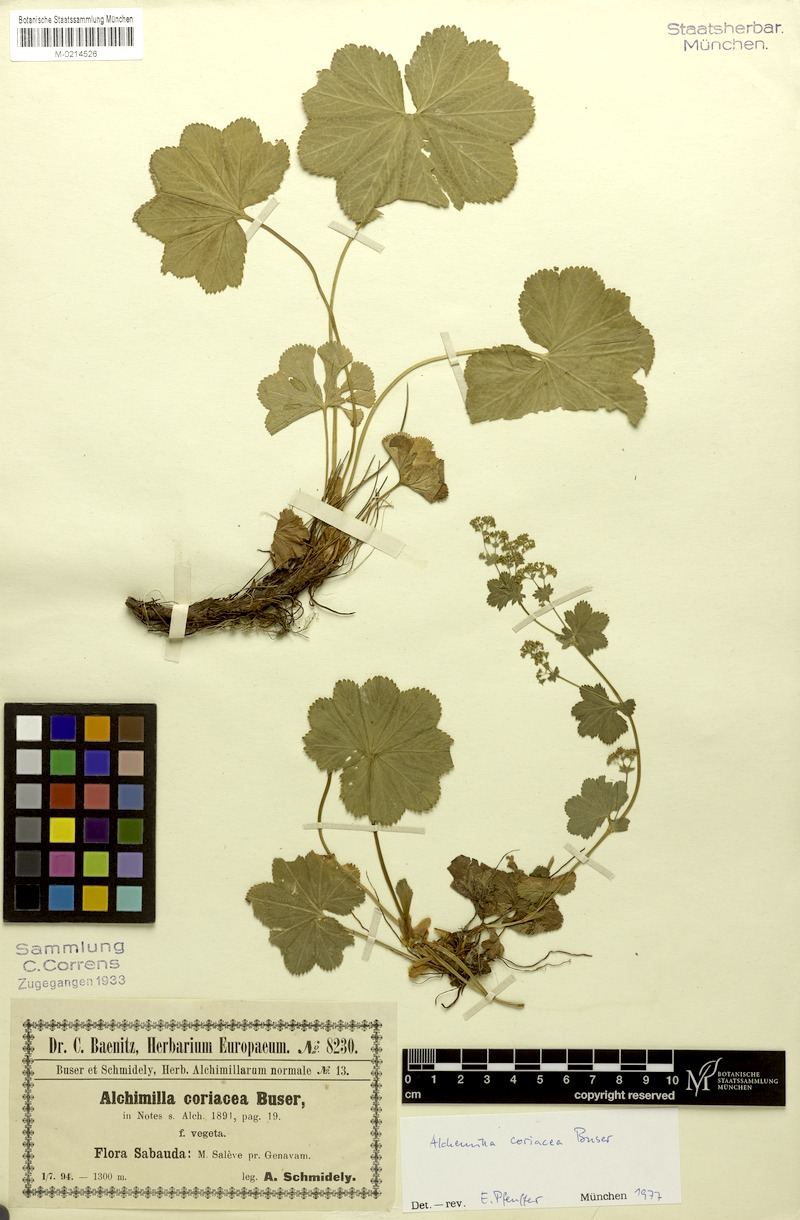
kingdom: Plantae
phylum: Tracheophyta
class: Magnoliopsida
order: Rosales
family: Rosaceae
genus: Alchemilla
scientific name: Alchemilla coriacea
